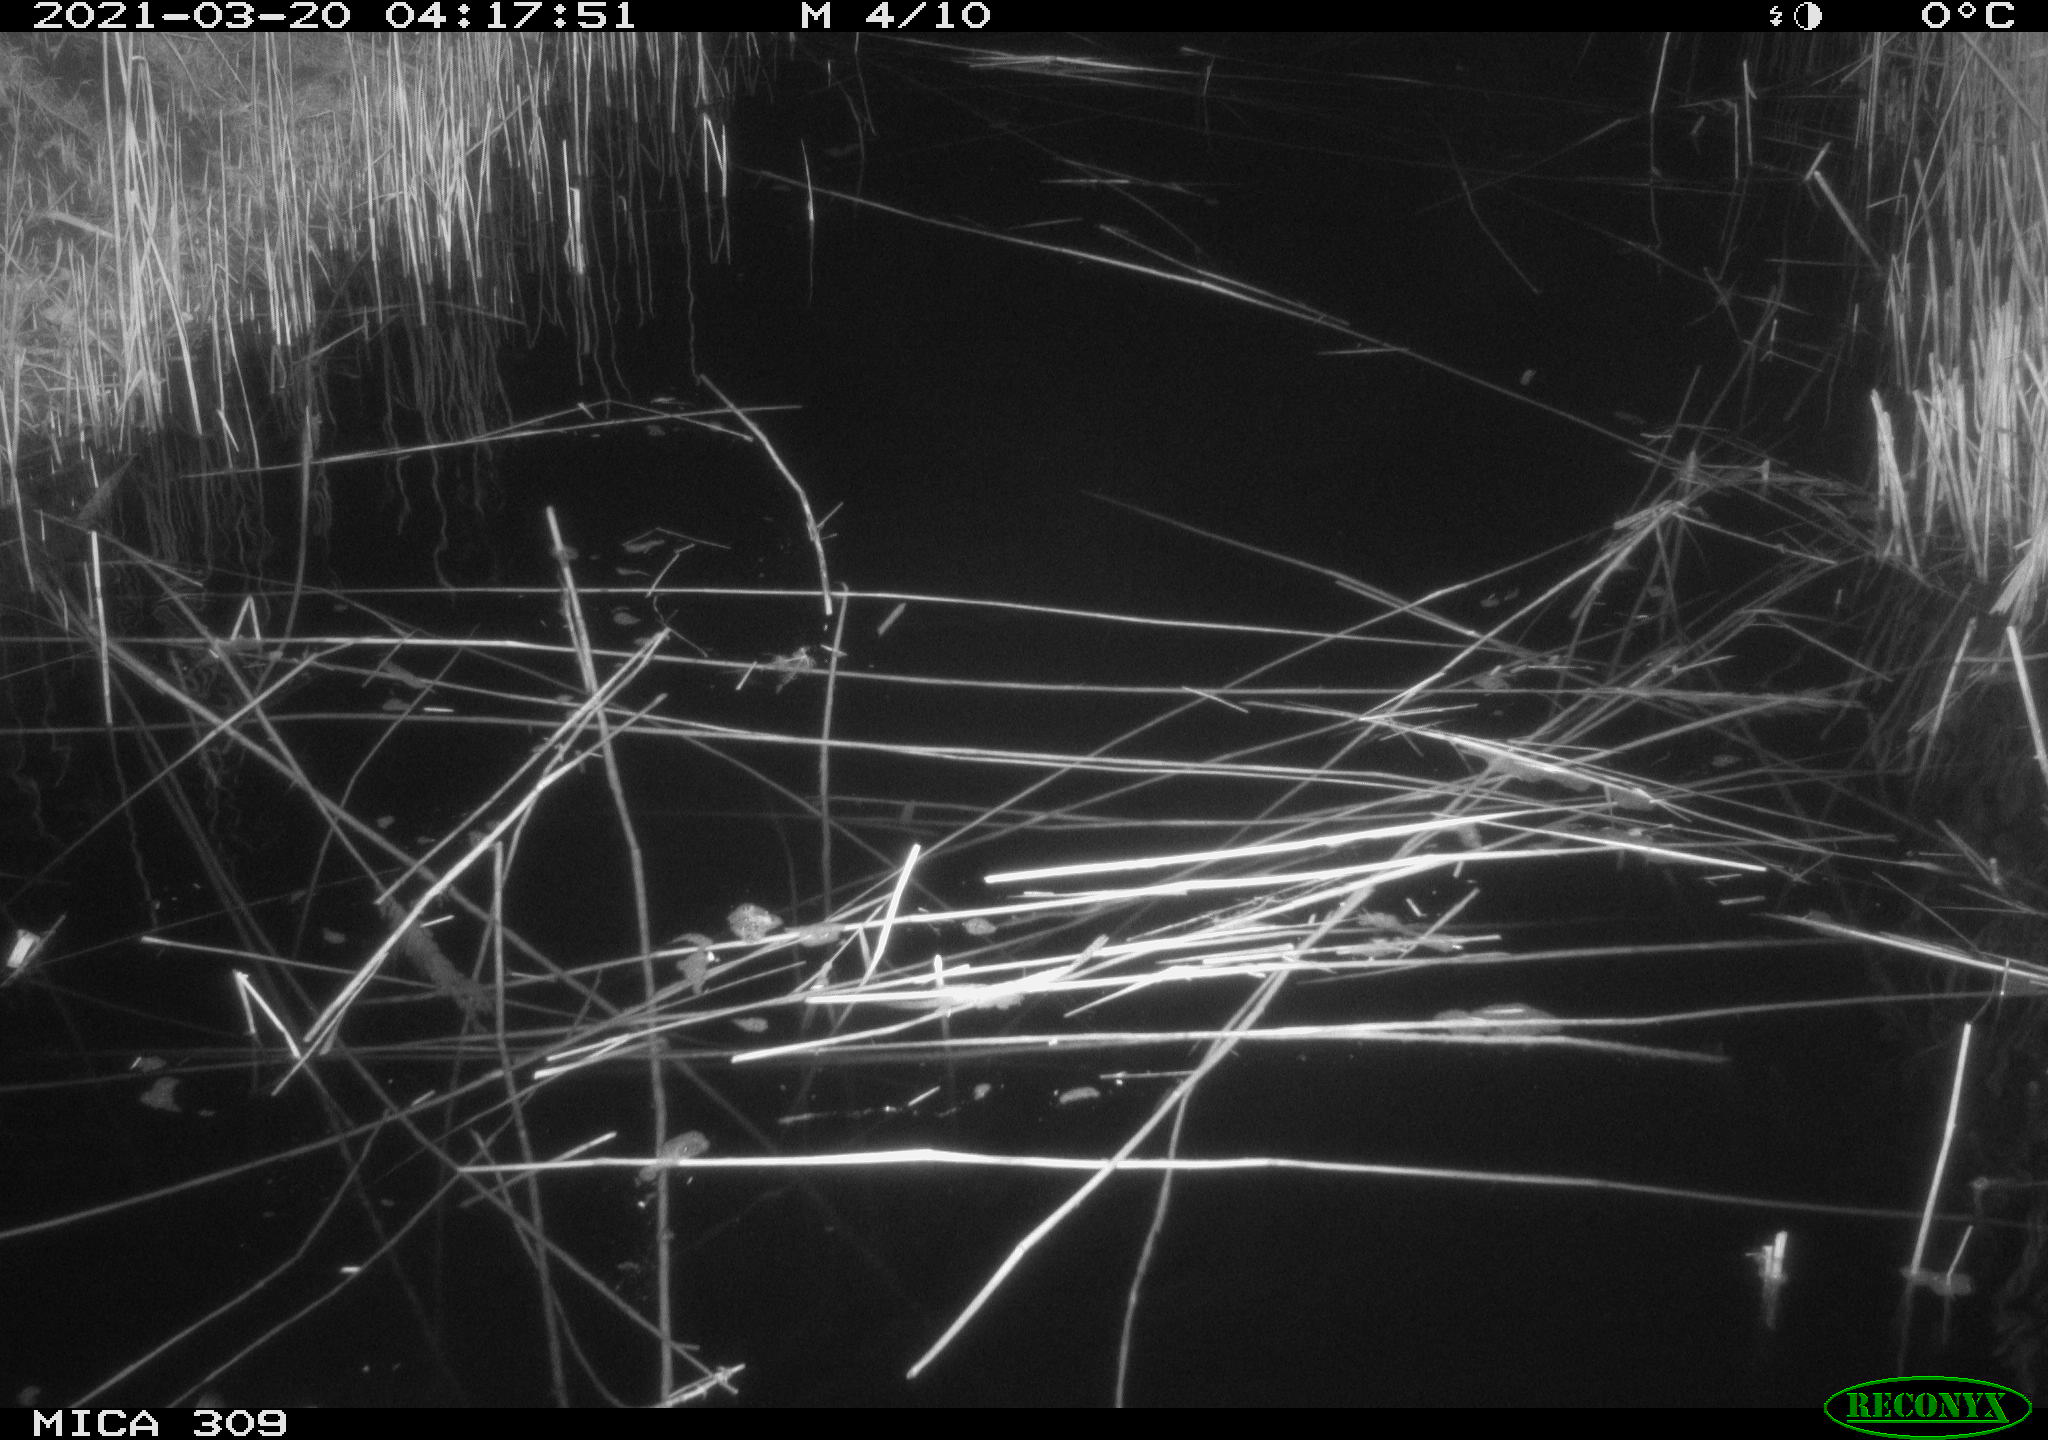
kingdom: Animalia
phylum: Chordata
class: Aves
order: Anseriformes
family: Anatidae
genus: Anas
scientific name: Anas platyrhynchos
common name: Mallard
